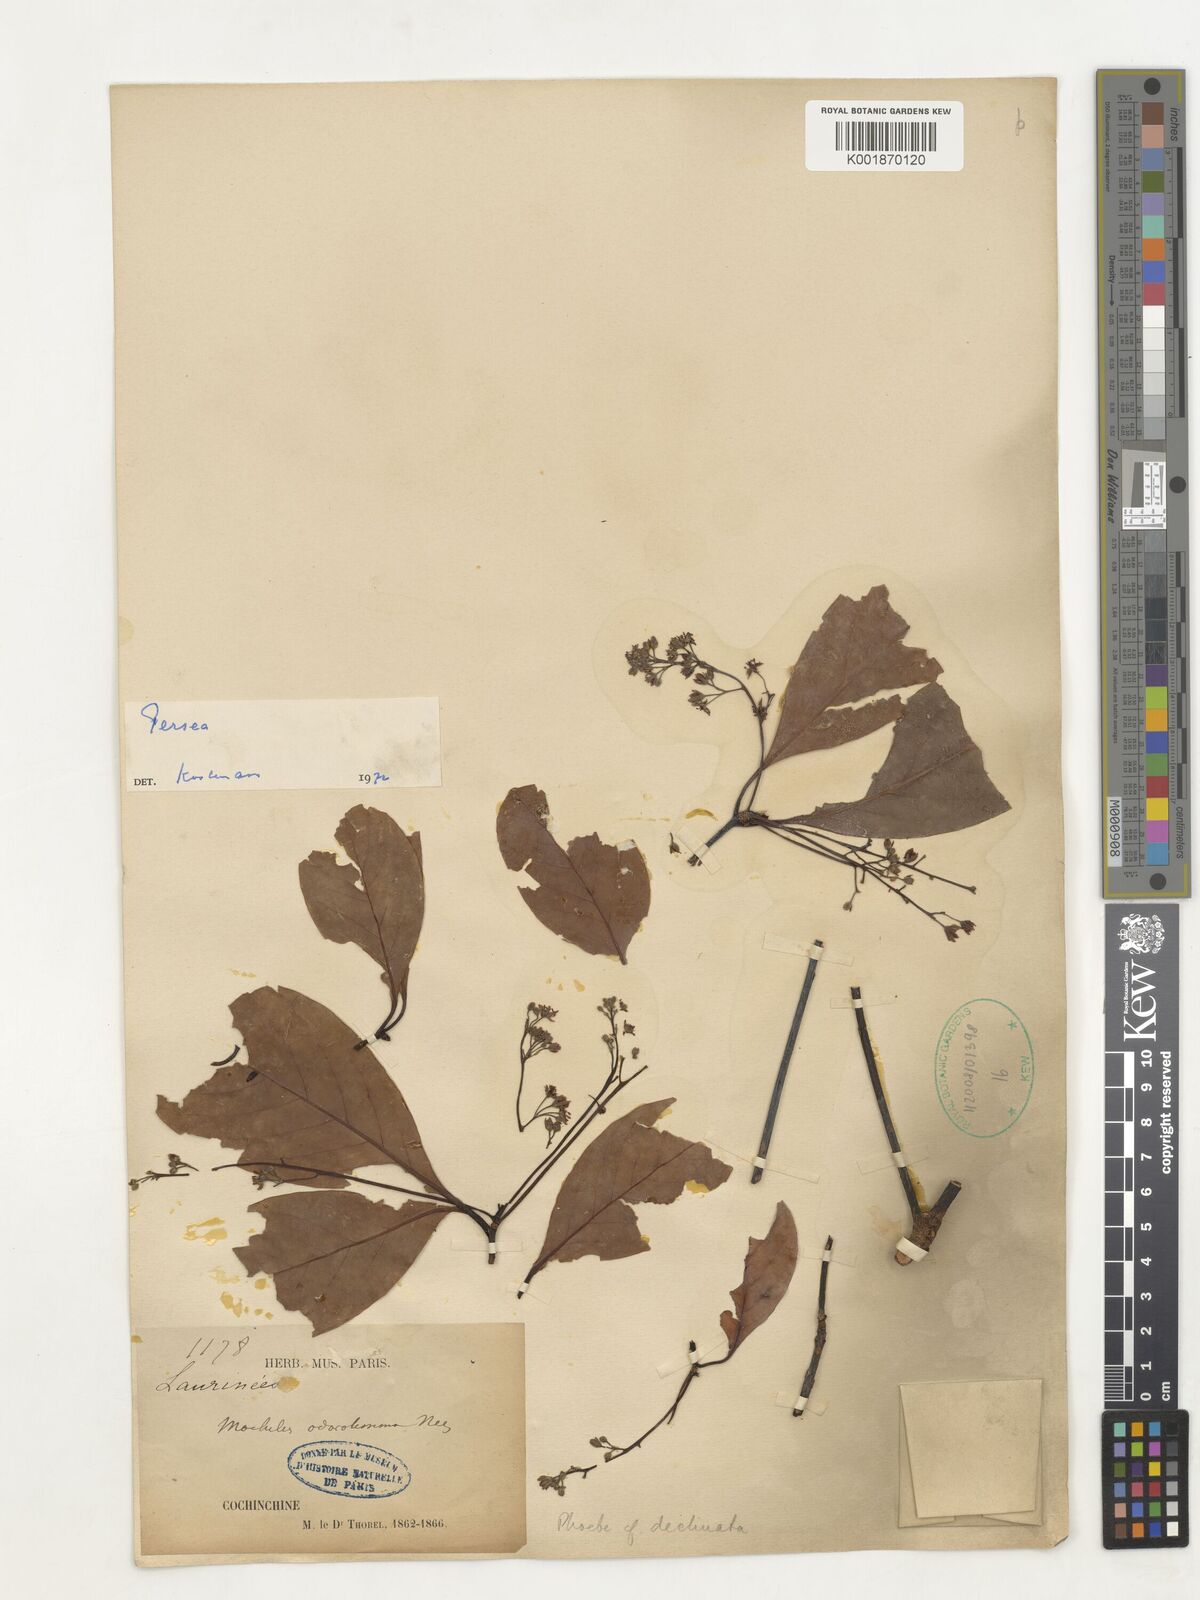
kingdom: Plantae
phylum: Tracheophyta
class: Magnoliopsida
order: Laurales
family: Lauraceae
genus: Persea
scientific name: Persea
